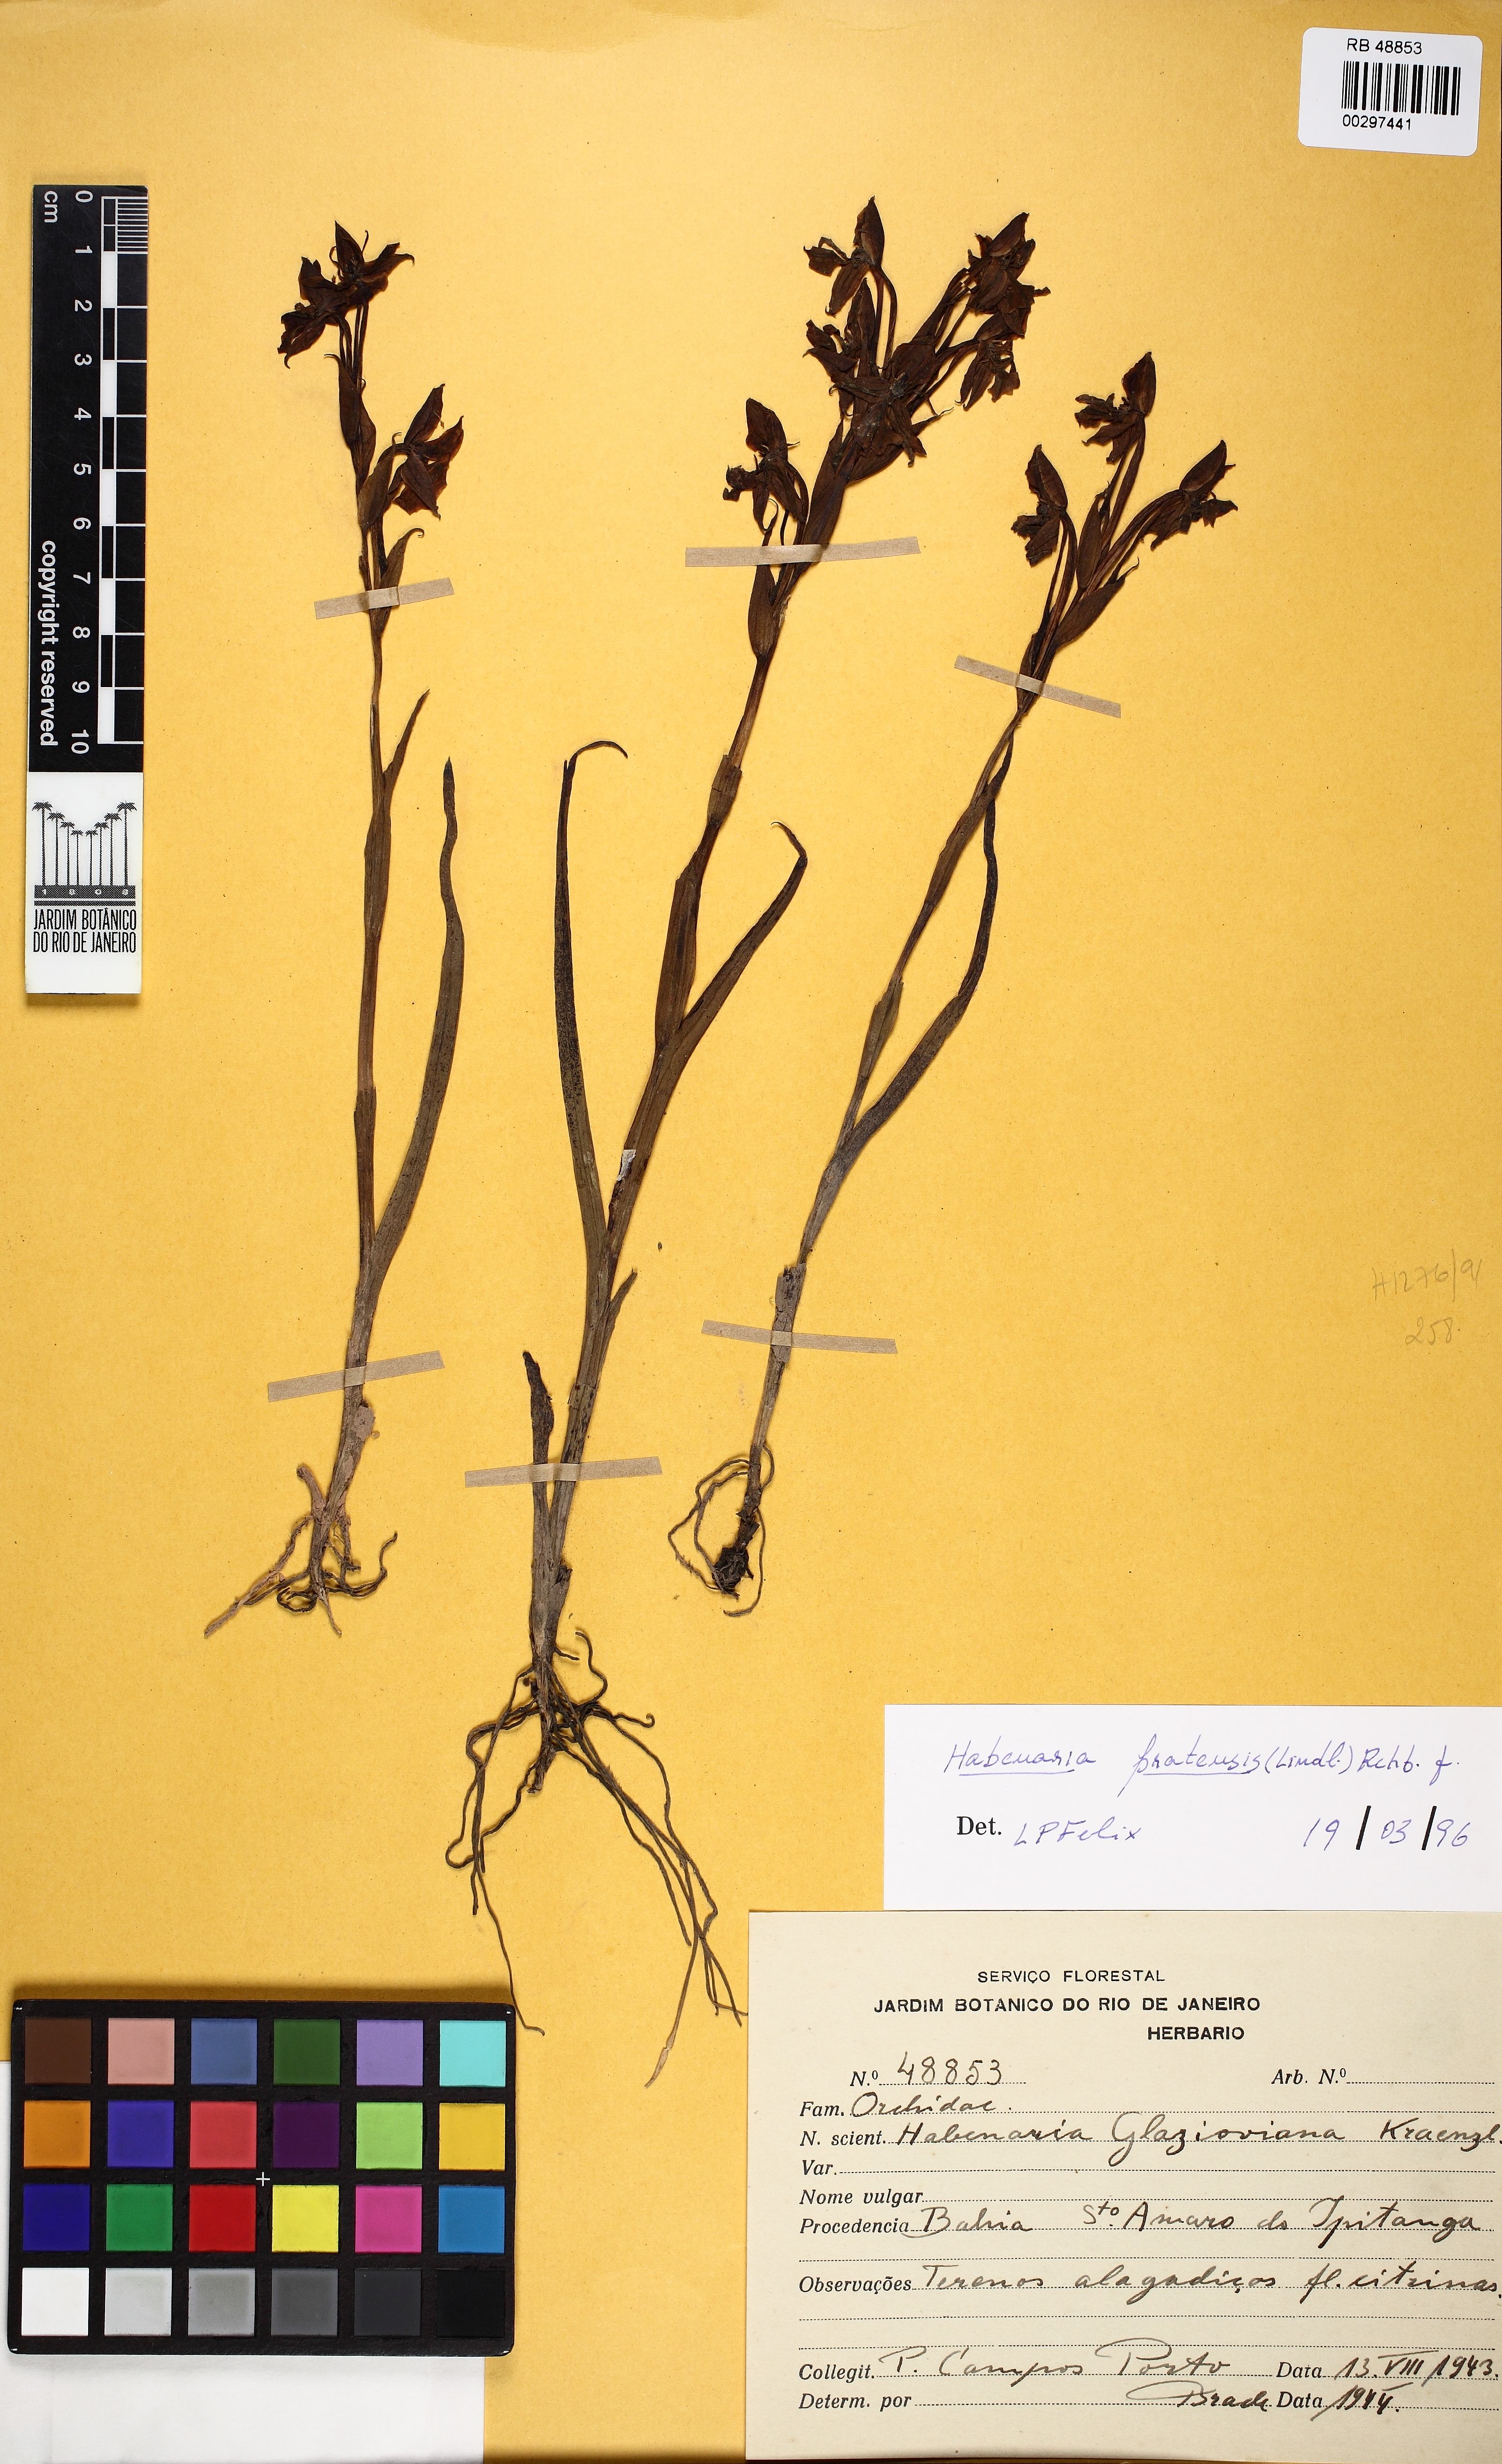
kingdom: Plantae
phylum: Tracheophyta
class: Liliopsida
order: Asparagales
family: Orchidaceae
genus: Habenaria
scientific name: Habenaria pratensis
